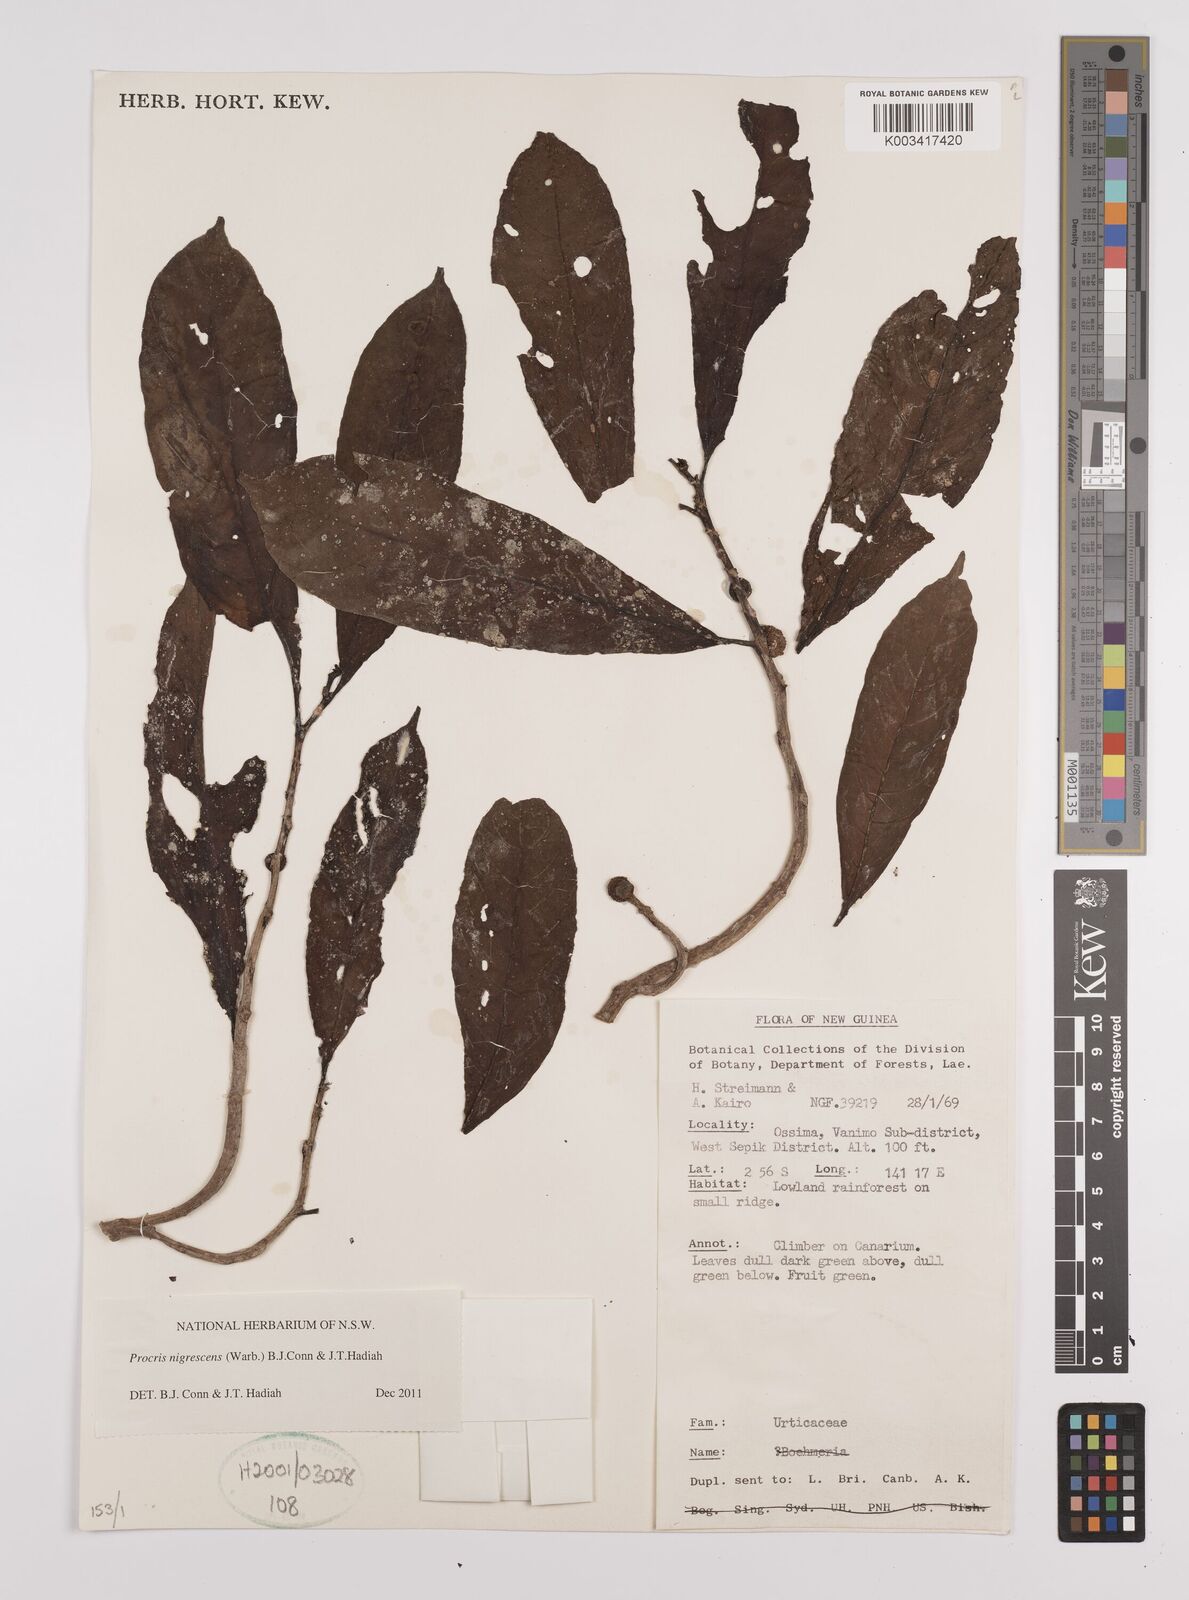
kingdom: Plantae
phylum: Tracheophyta
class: Magnoliopsida
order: Rosales
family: Urticaceae
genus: Procris
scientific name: Procris
